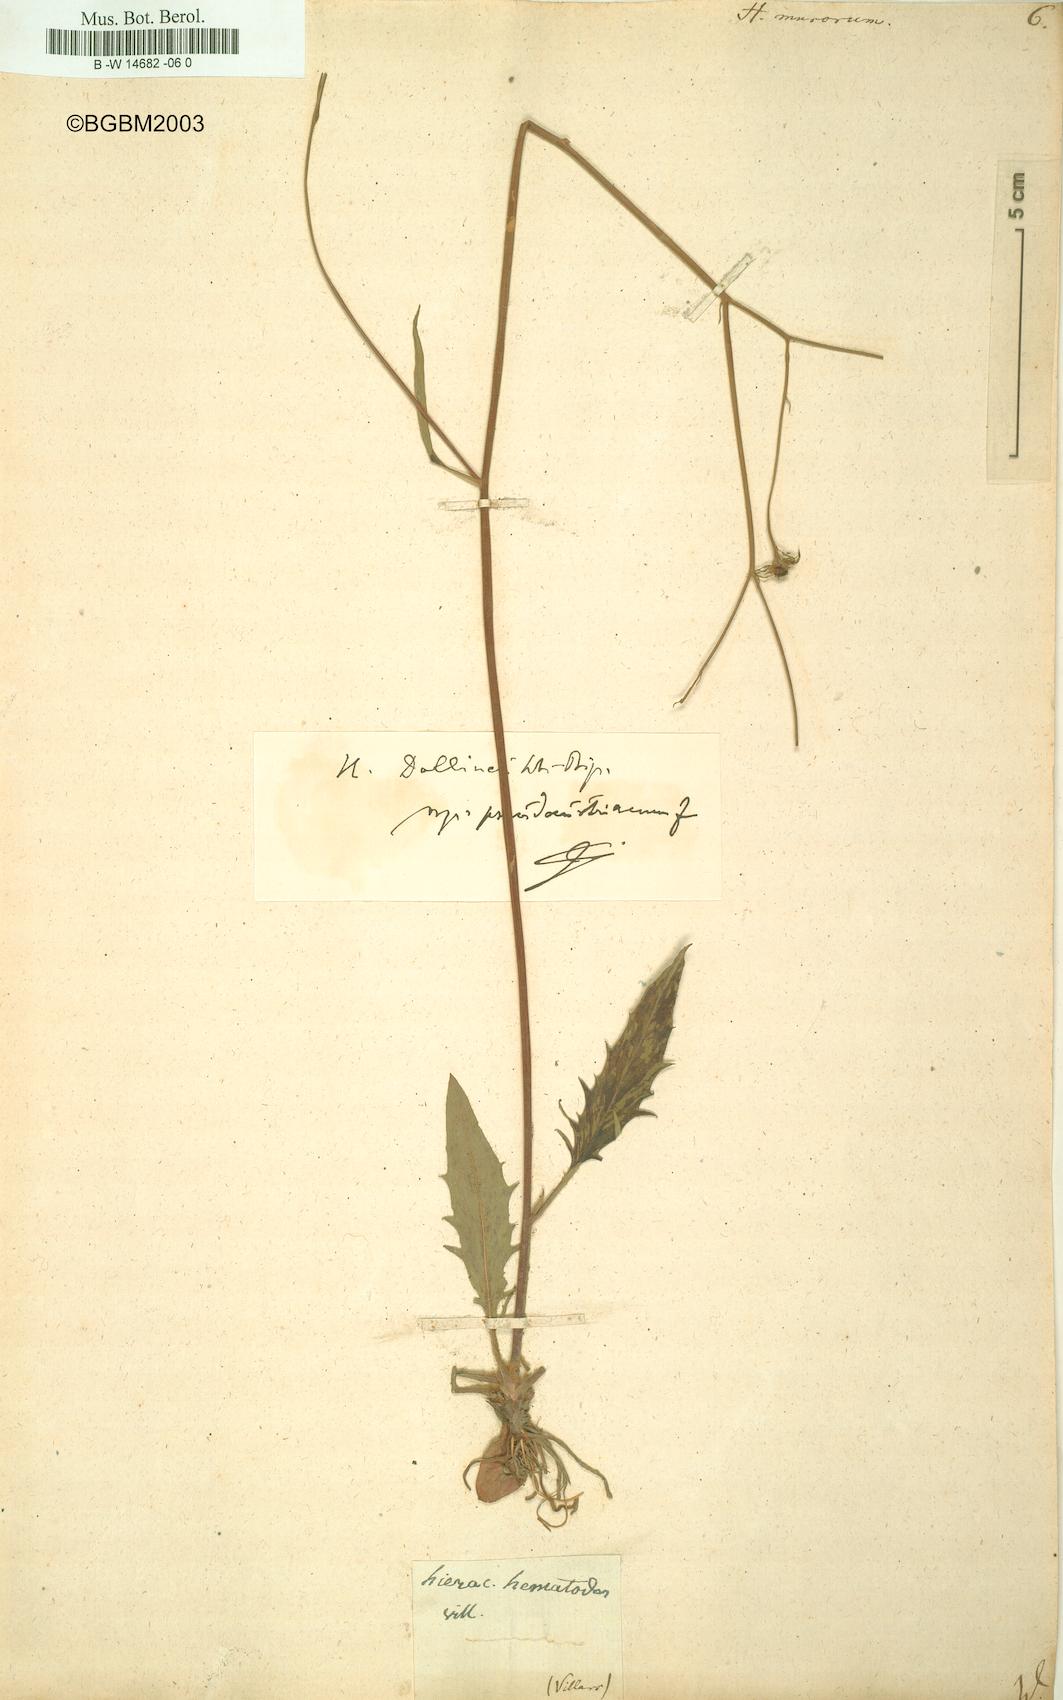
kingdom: Plantae
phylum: Tracheophyta
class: Magnoliopsida
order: Asterales
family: Asteraceae
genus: Hieracium
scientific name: Hieracium murorum
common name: Wall hawkweed
